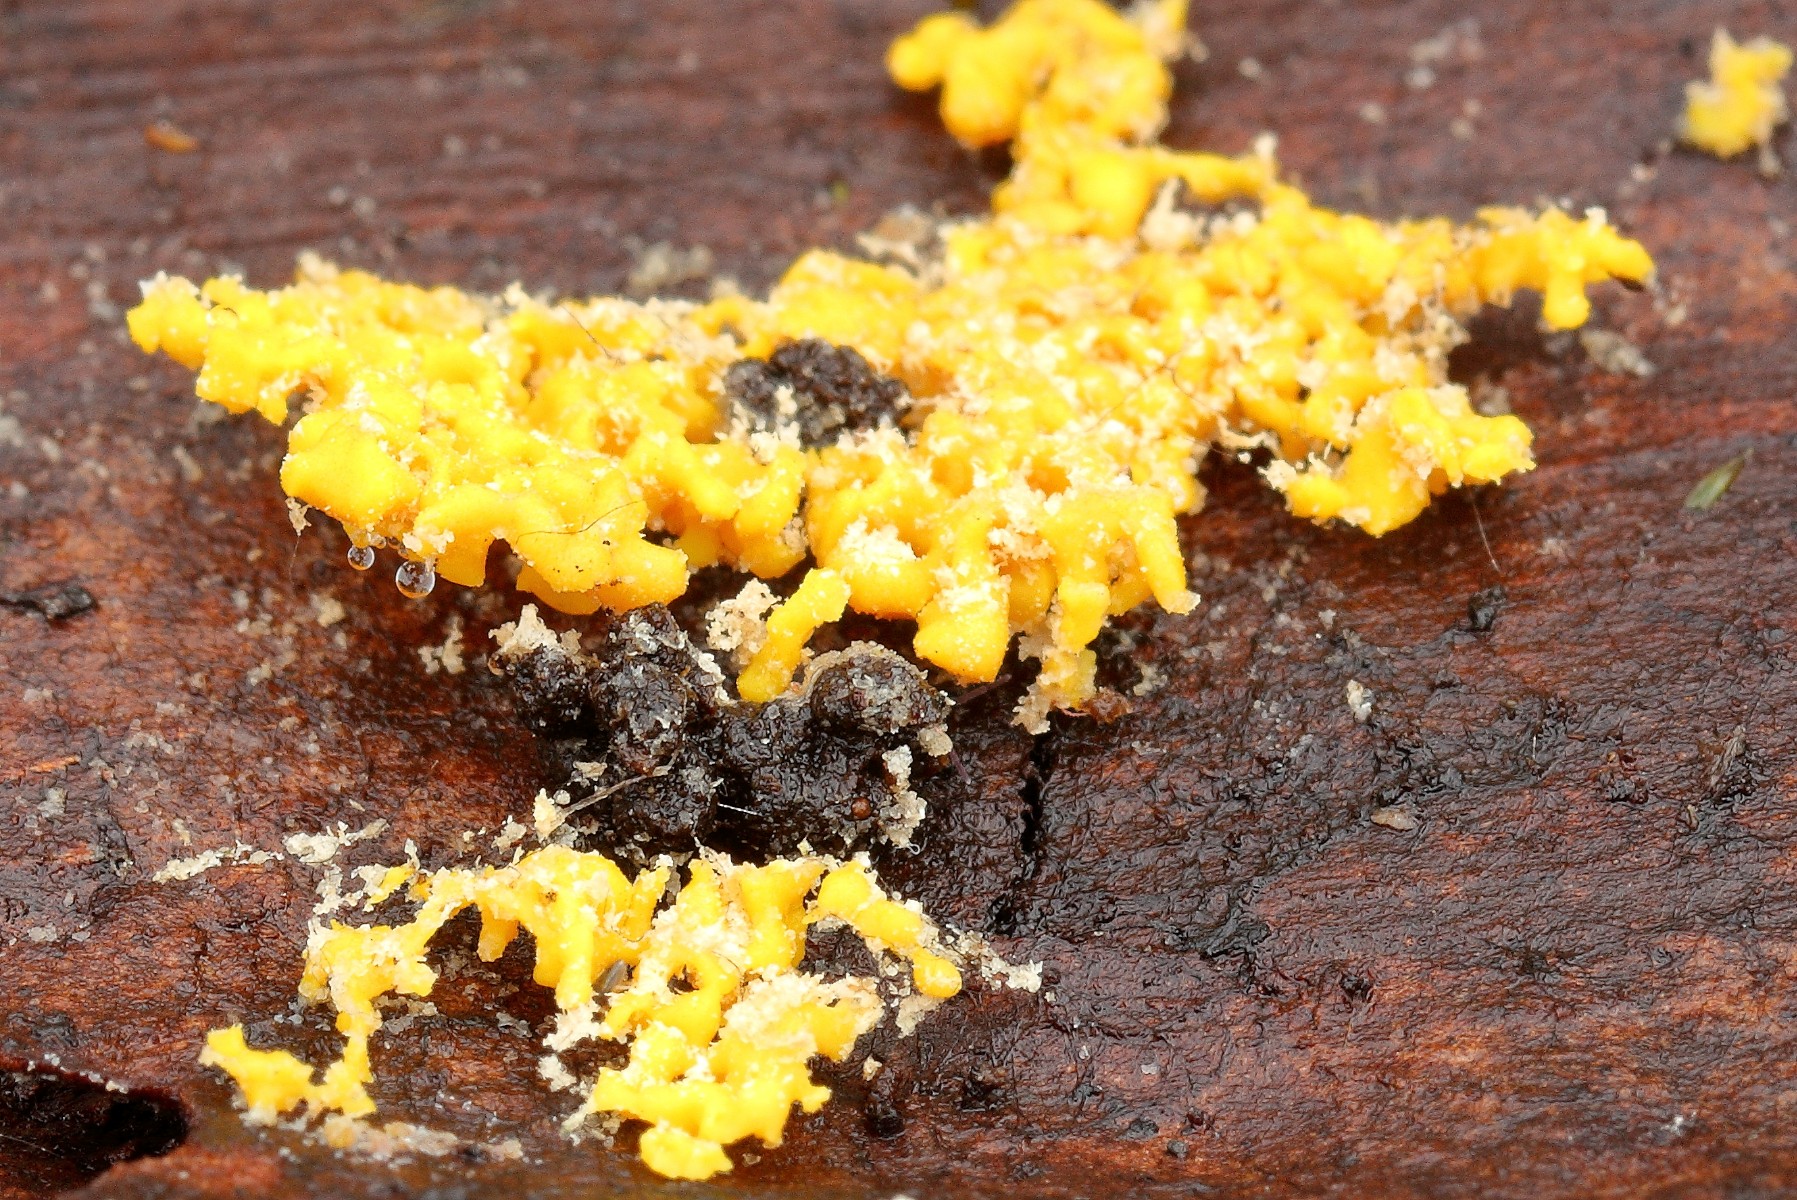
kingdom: Protozoa
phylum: Mycetozoa
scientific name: Mycetozoa
